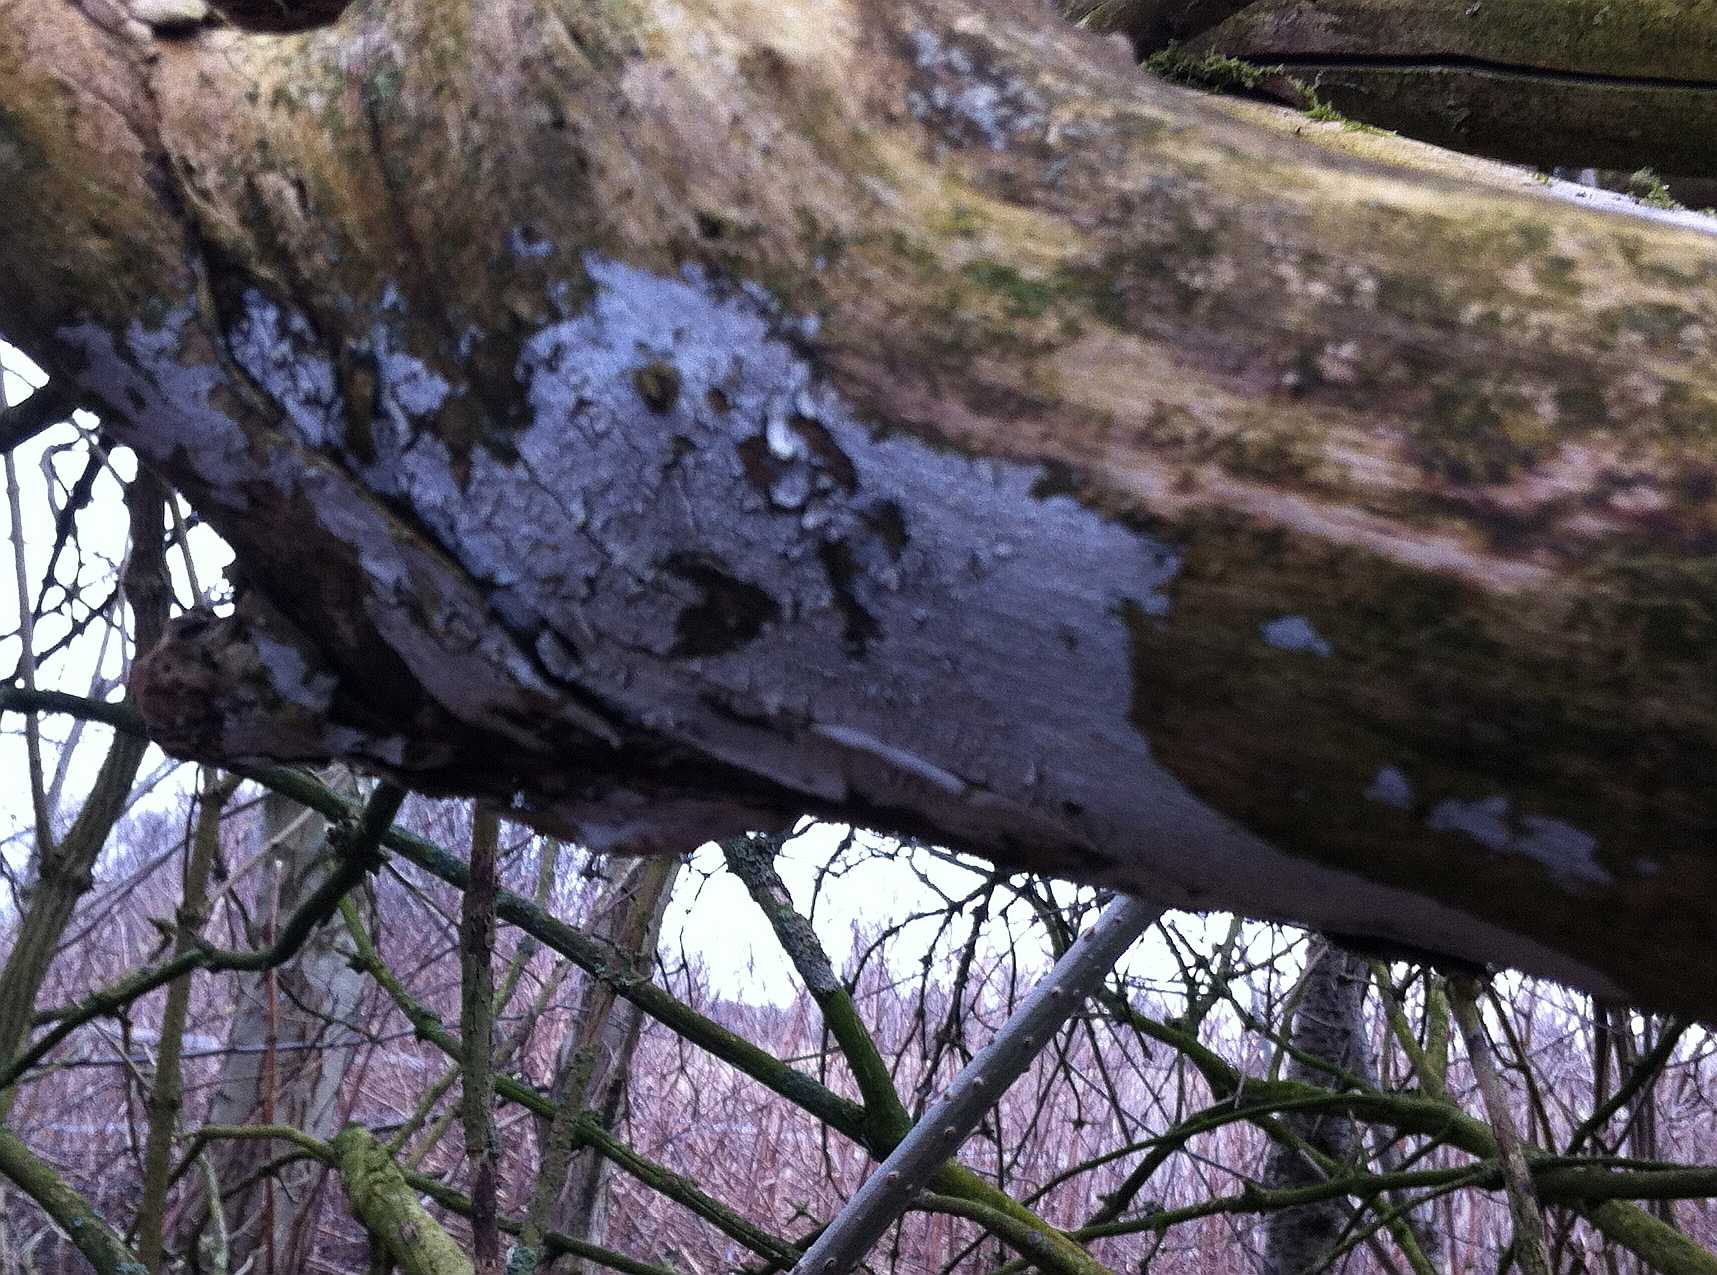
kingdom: Fungi
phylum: Basidiomycota
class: Agaricomycetes
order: Corticiales
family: Corticiaceae
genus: Lyomyces
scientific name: Lyomyces sambuci
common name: almindelig hyldehinde
